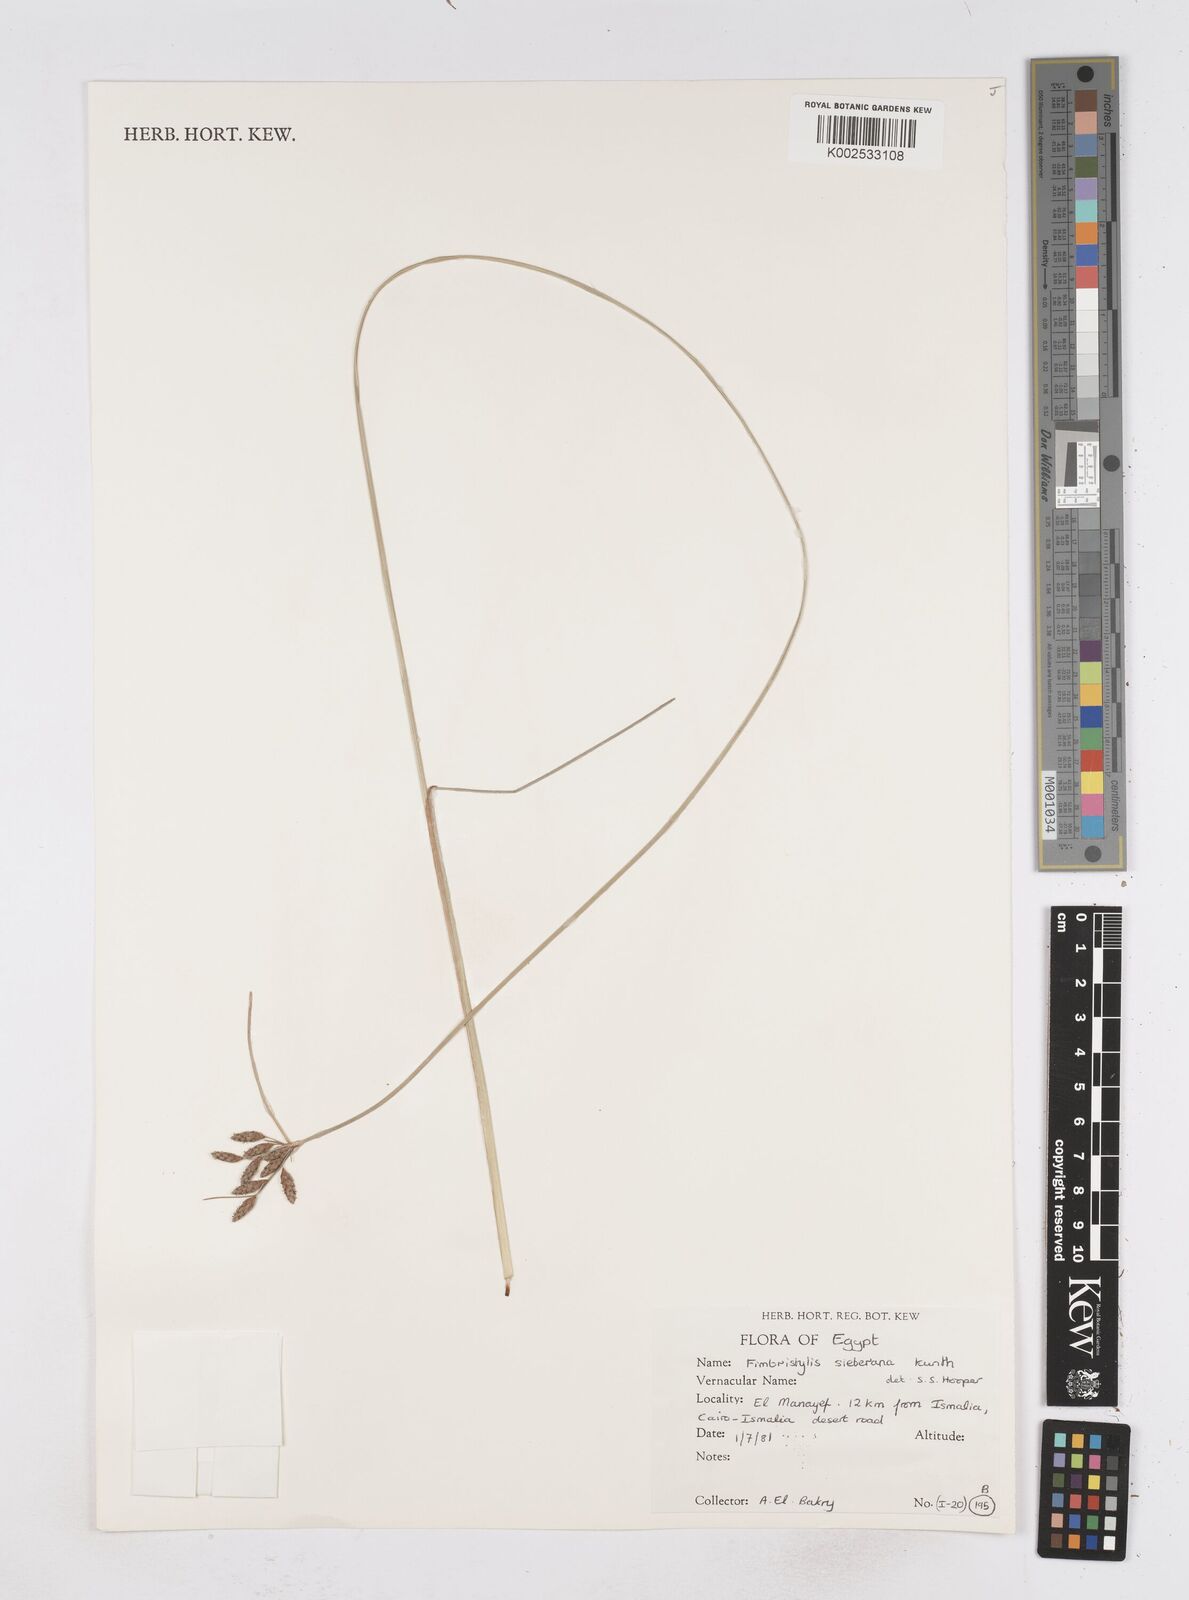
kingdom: Plantae
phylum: Tracheophyta
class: Liliopsida
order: Poales
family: Cyperaceae
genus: Fimbristylis
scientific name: Fimbristylis ferruginea
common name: West indian fimbry
